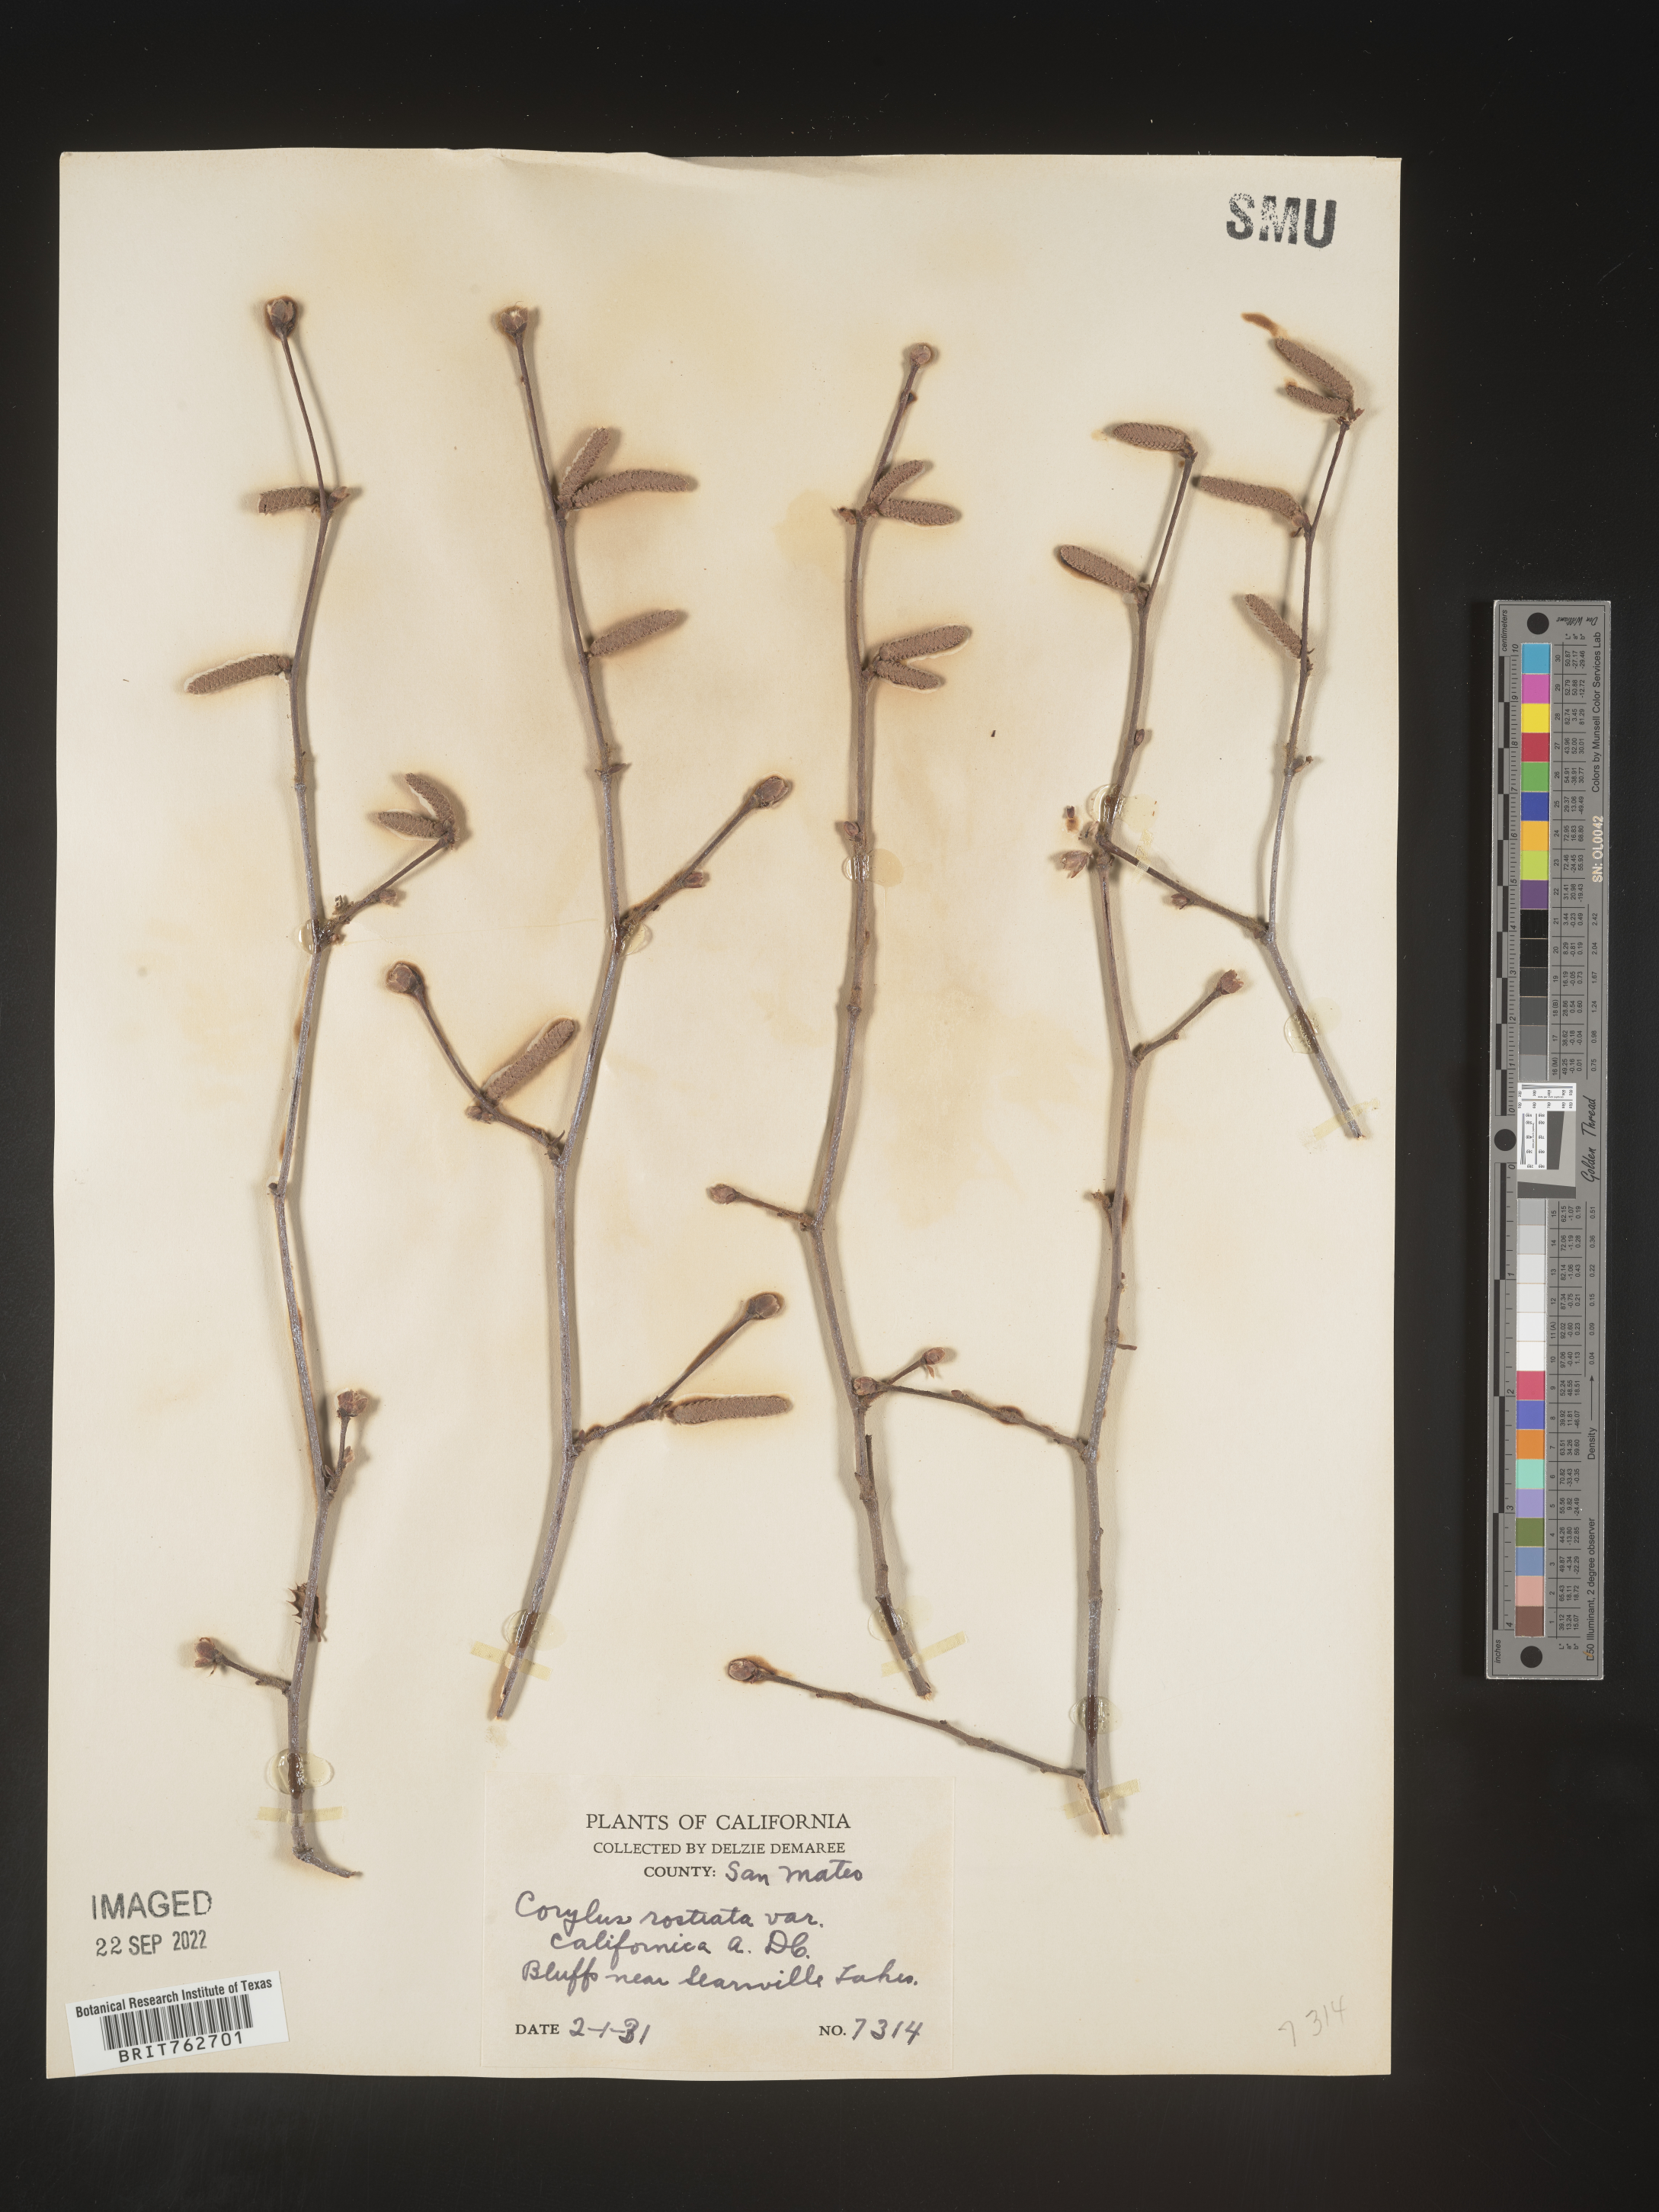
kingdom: Plantae
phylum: Tracheophyta
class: Magnoliopsida
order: Fagales
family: Betulaceae
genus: Corylus
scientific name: Corylus cornuta
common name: Beaked hazel
